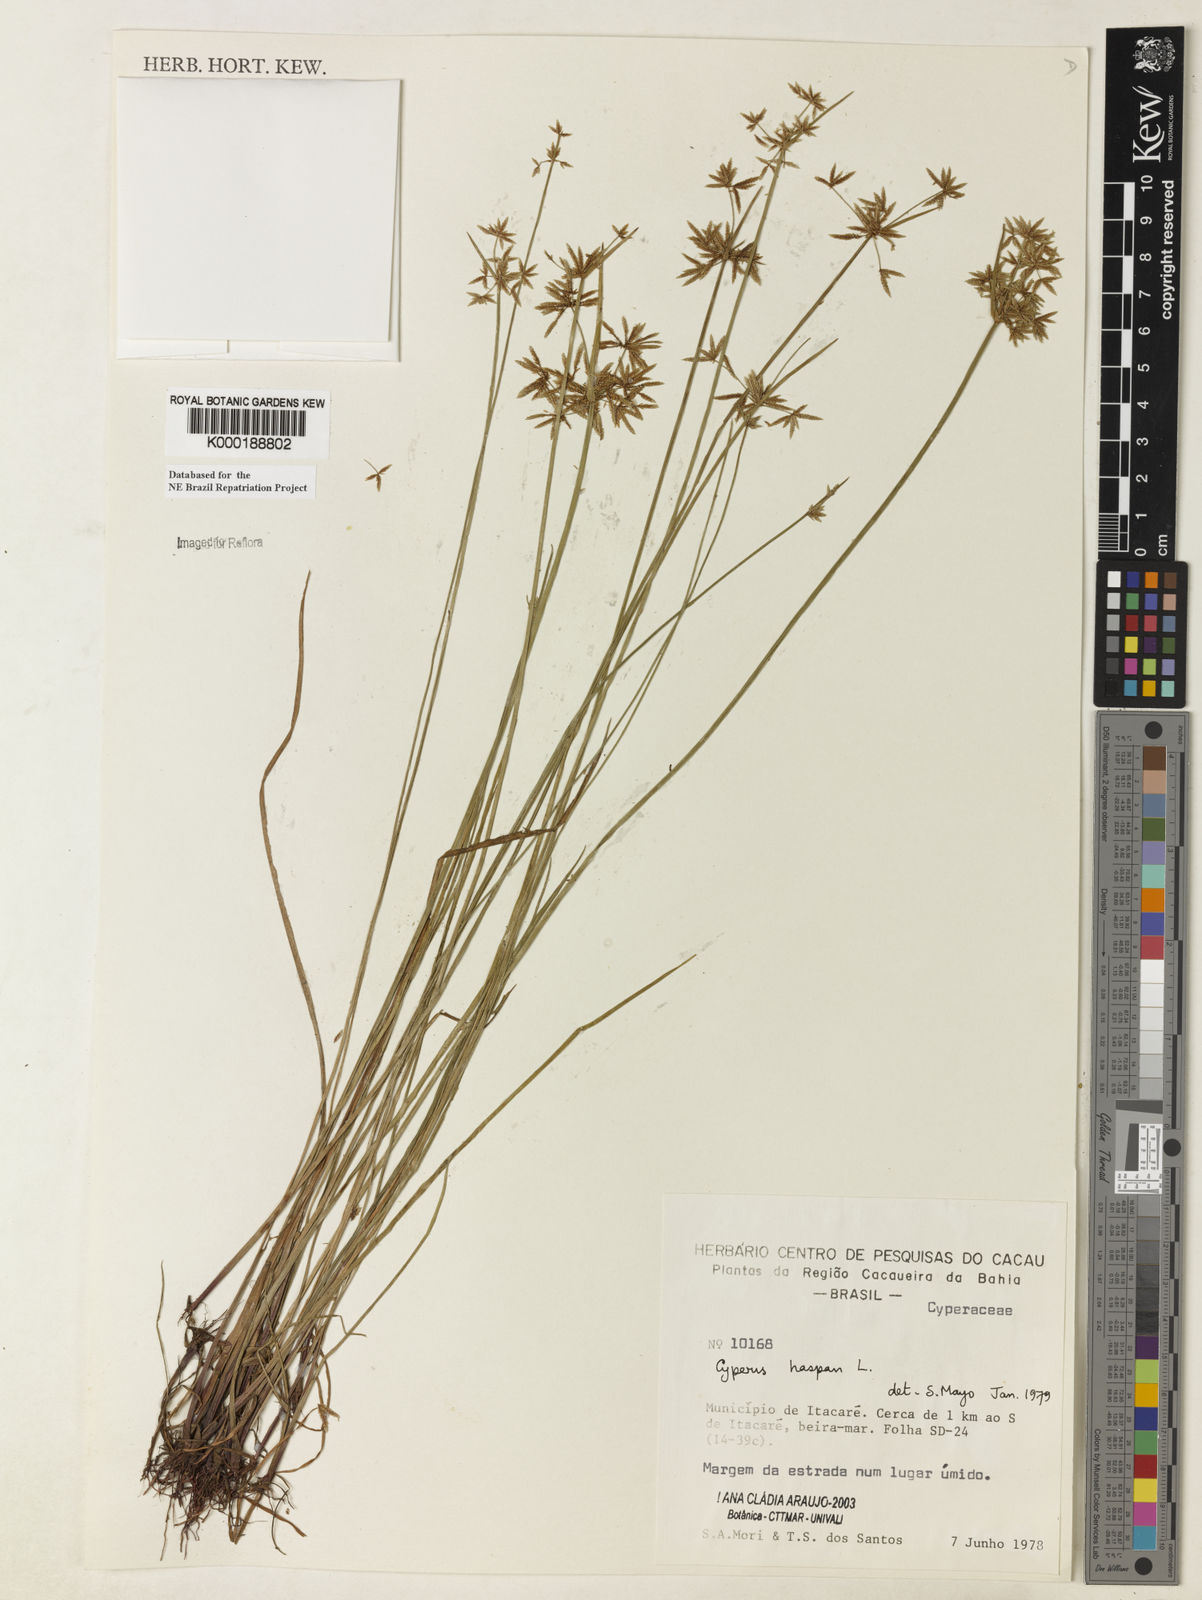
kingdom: Plantae
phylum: Tracheophyta
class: Liliopsida
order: Poales
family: Cyperaceae
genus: Cyperus
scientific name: Cyperus haspan
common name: Haspan flatsedge
